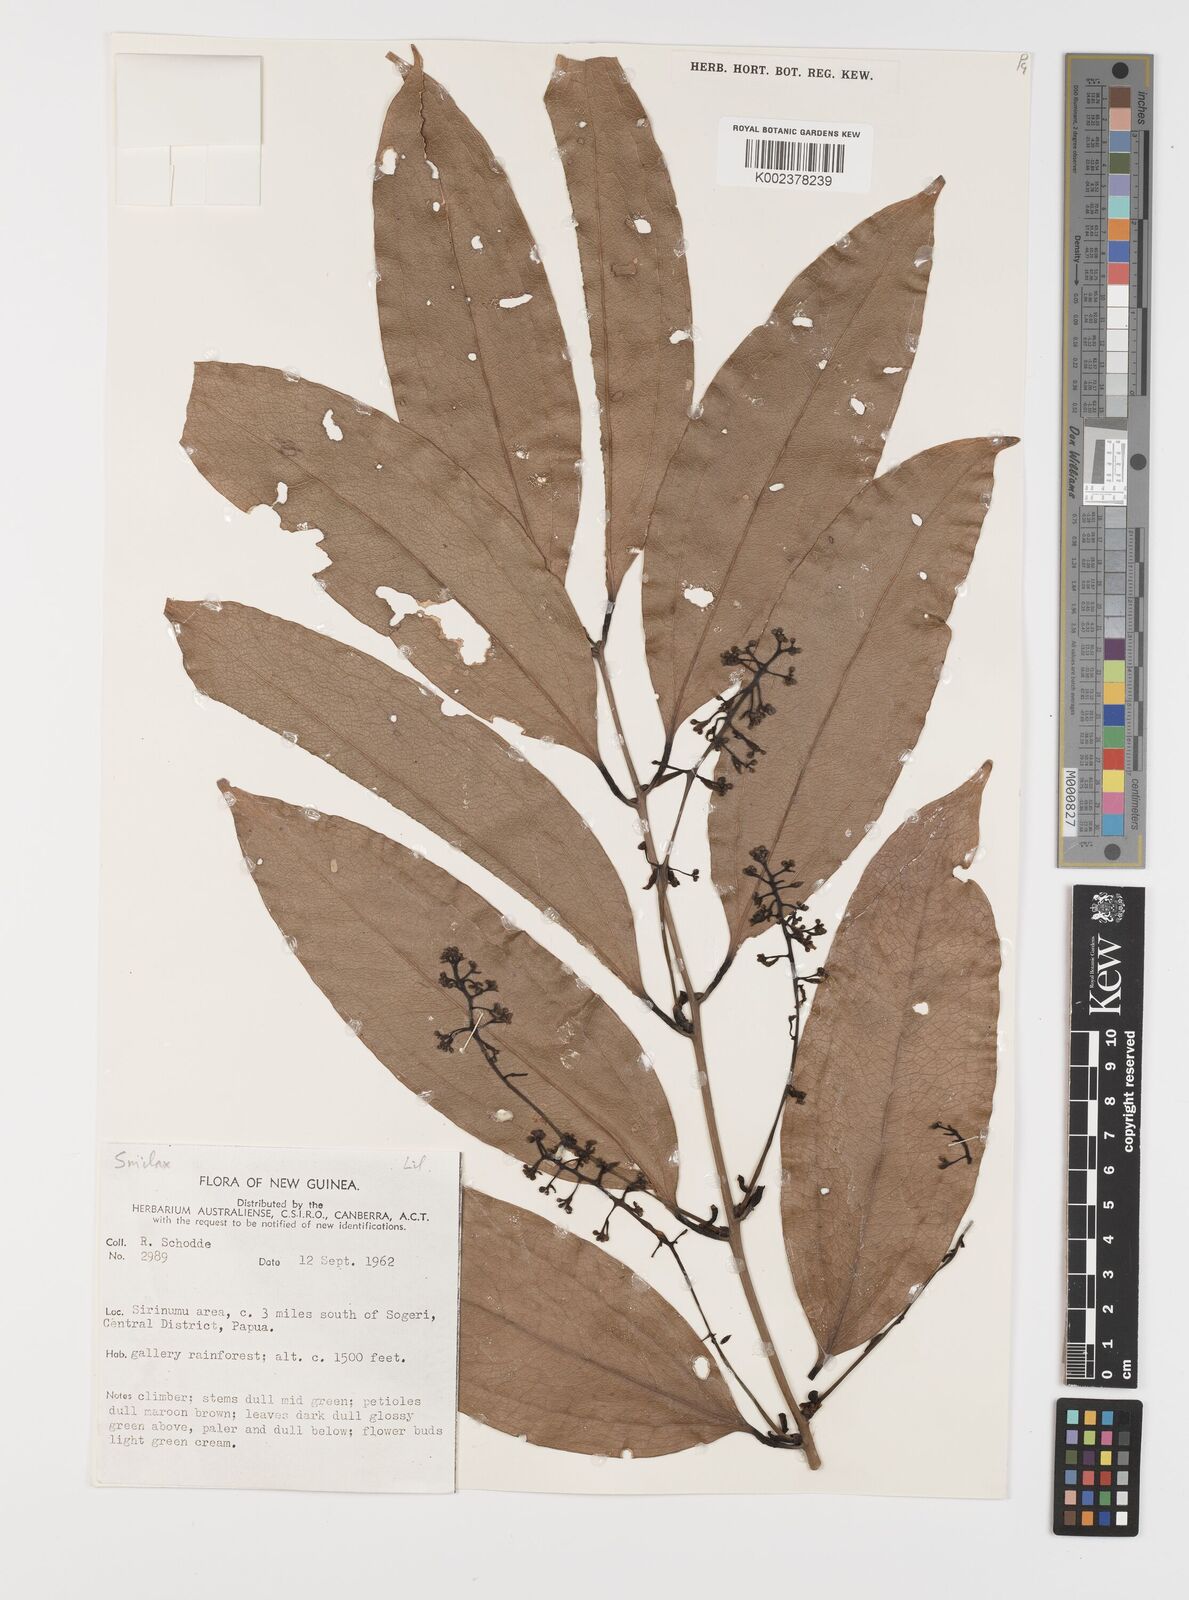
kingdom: Plantae
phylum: Tracheophyta
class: Liliopsida
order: Liliales
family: Smilacaceae
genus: Smilax
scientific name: Smilax
